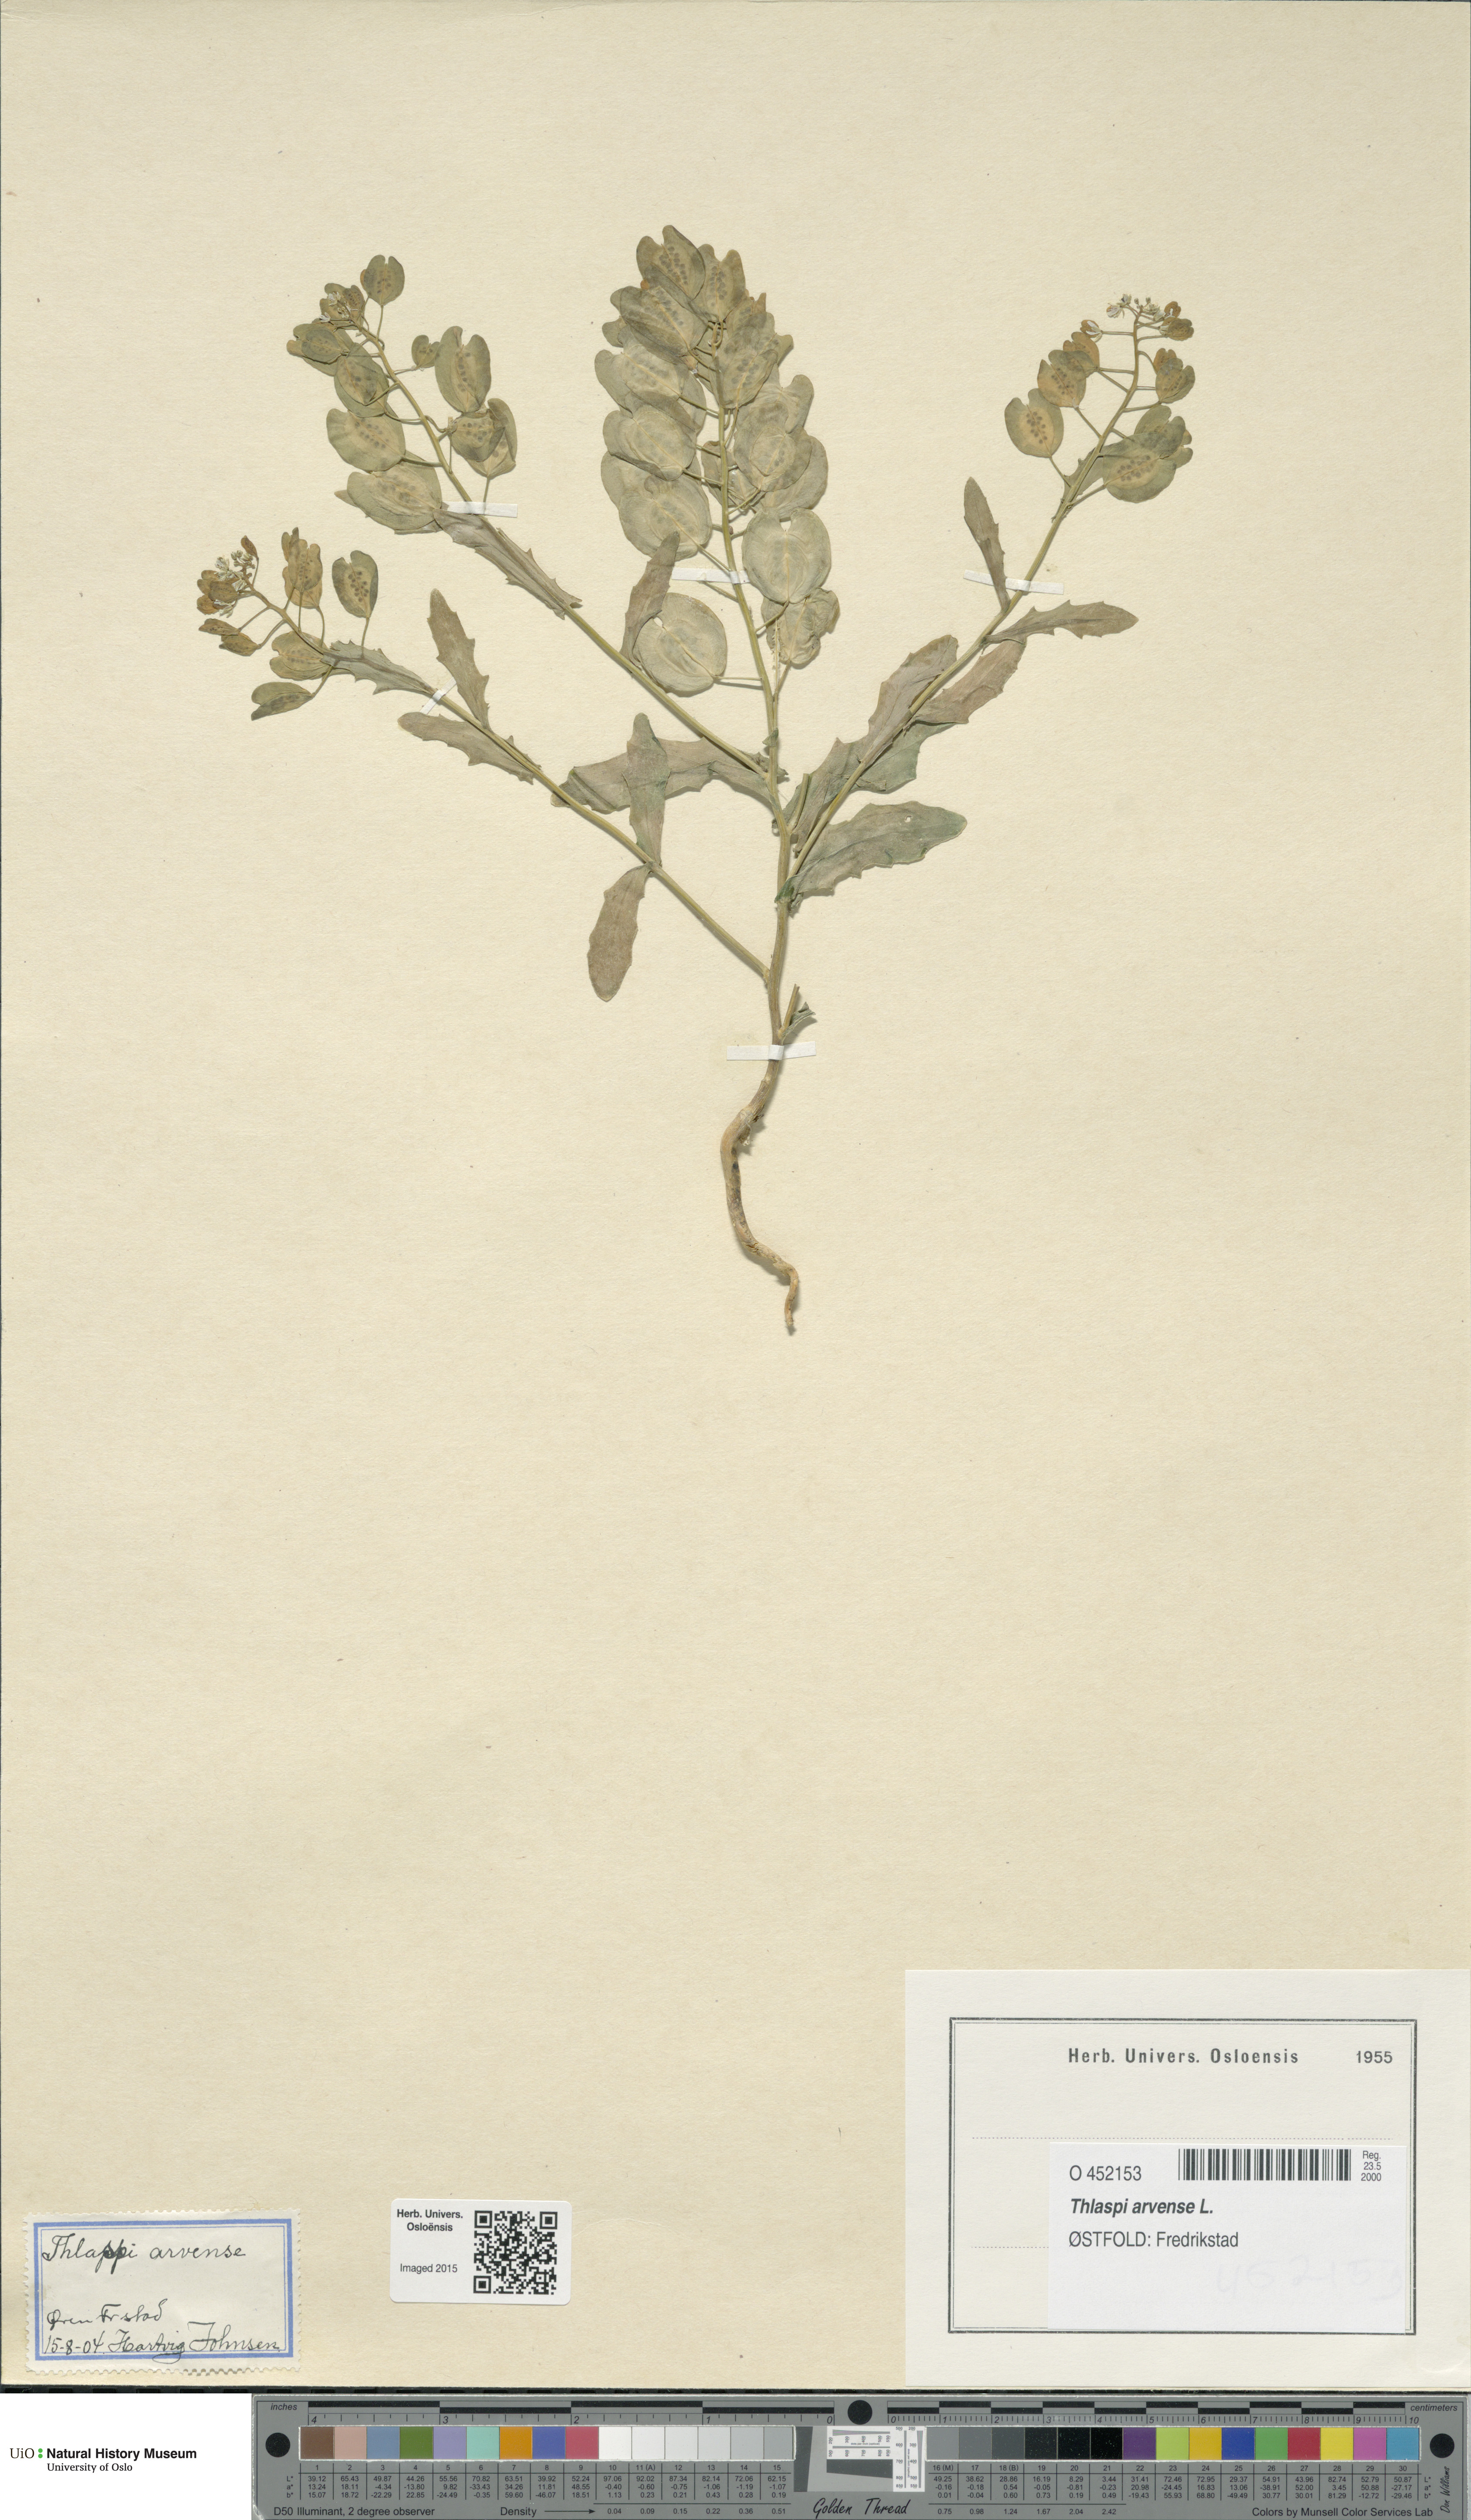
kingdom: Plantae
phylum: Tracheophyta
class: Magnoliopsida
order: Brassicales
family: Brassicaceae
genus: Thlaspi
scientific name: Thlaspi arvense
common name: Field pennycress
